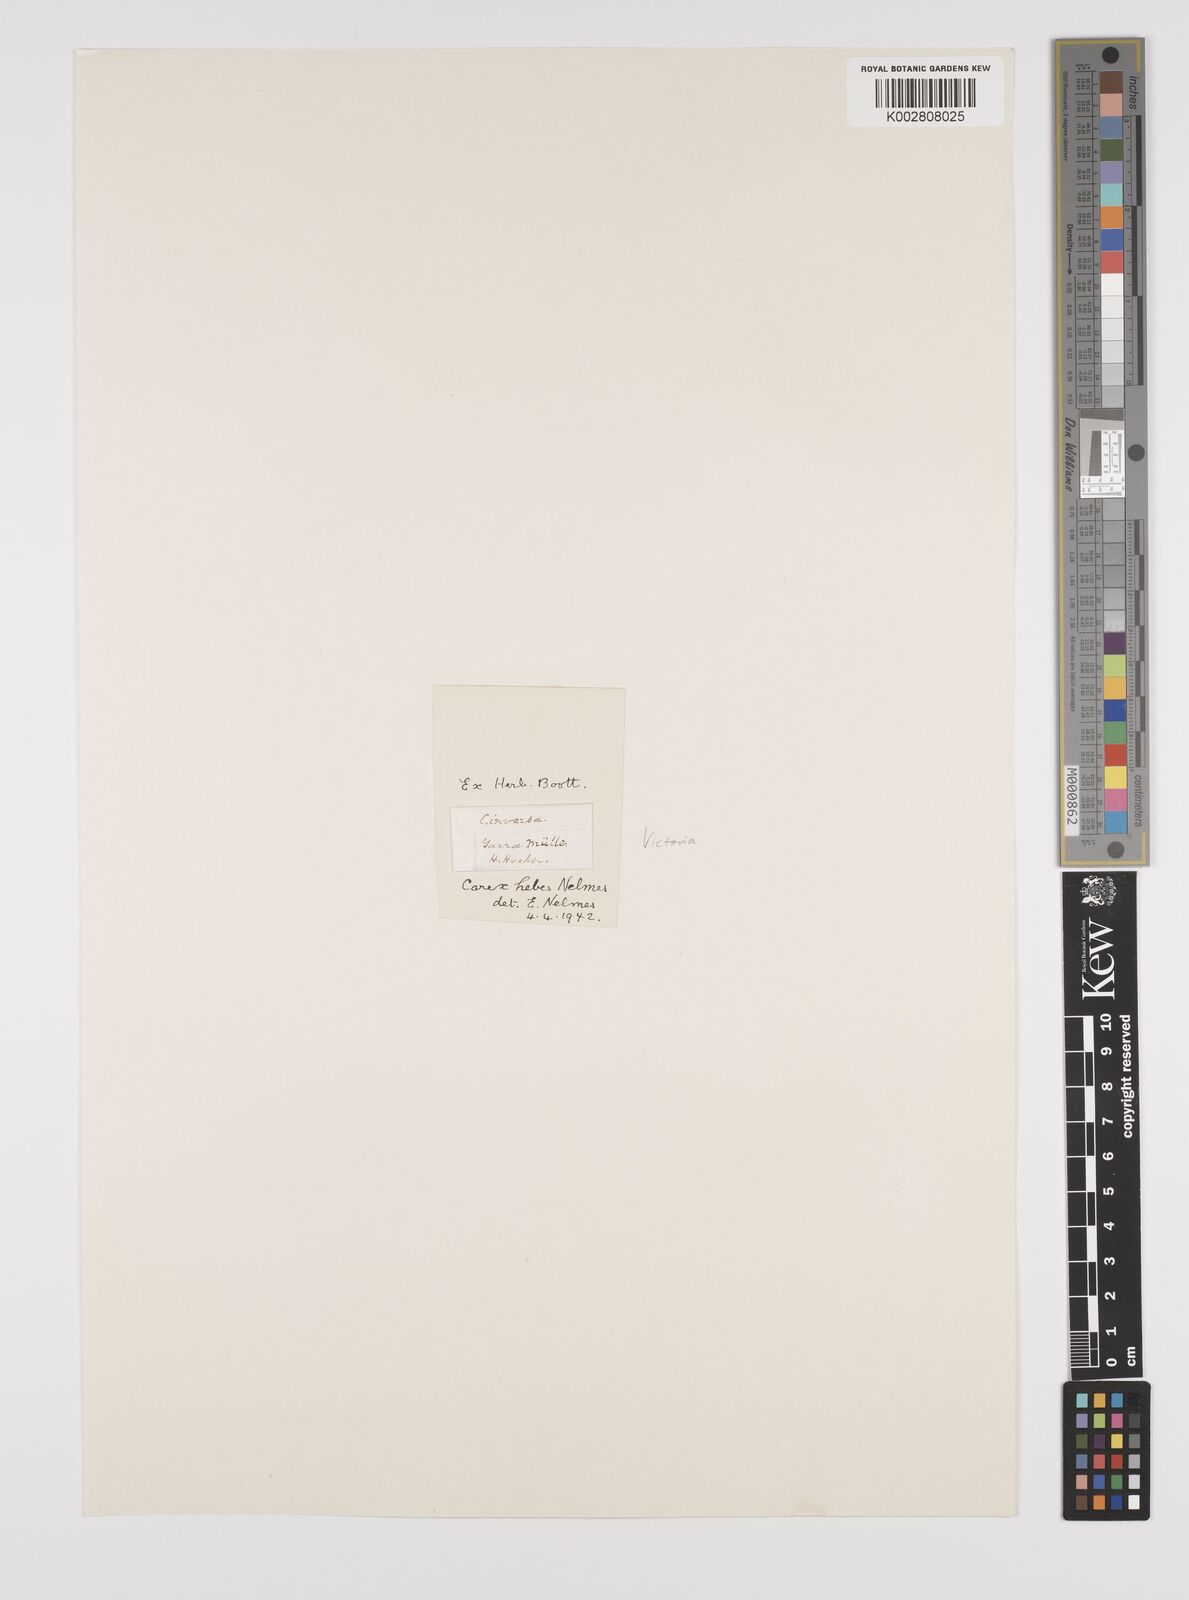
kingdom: Plantae
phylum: Tracheophyta
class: Liliopsida
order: Poales
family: Cyperaceae
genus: Carex
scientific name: Carex hebes
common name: Dry land sedge
